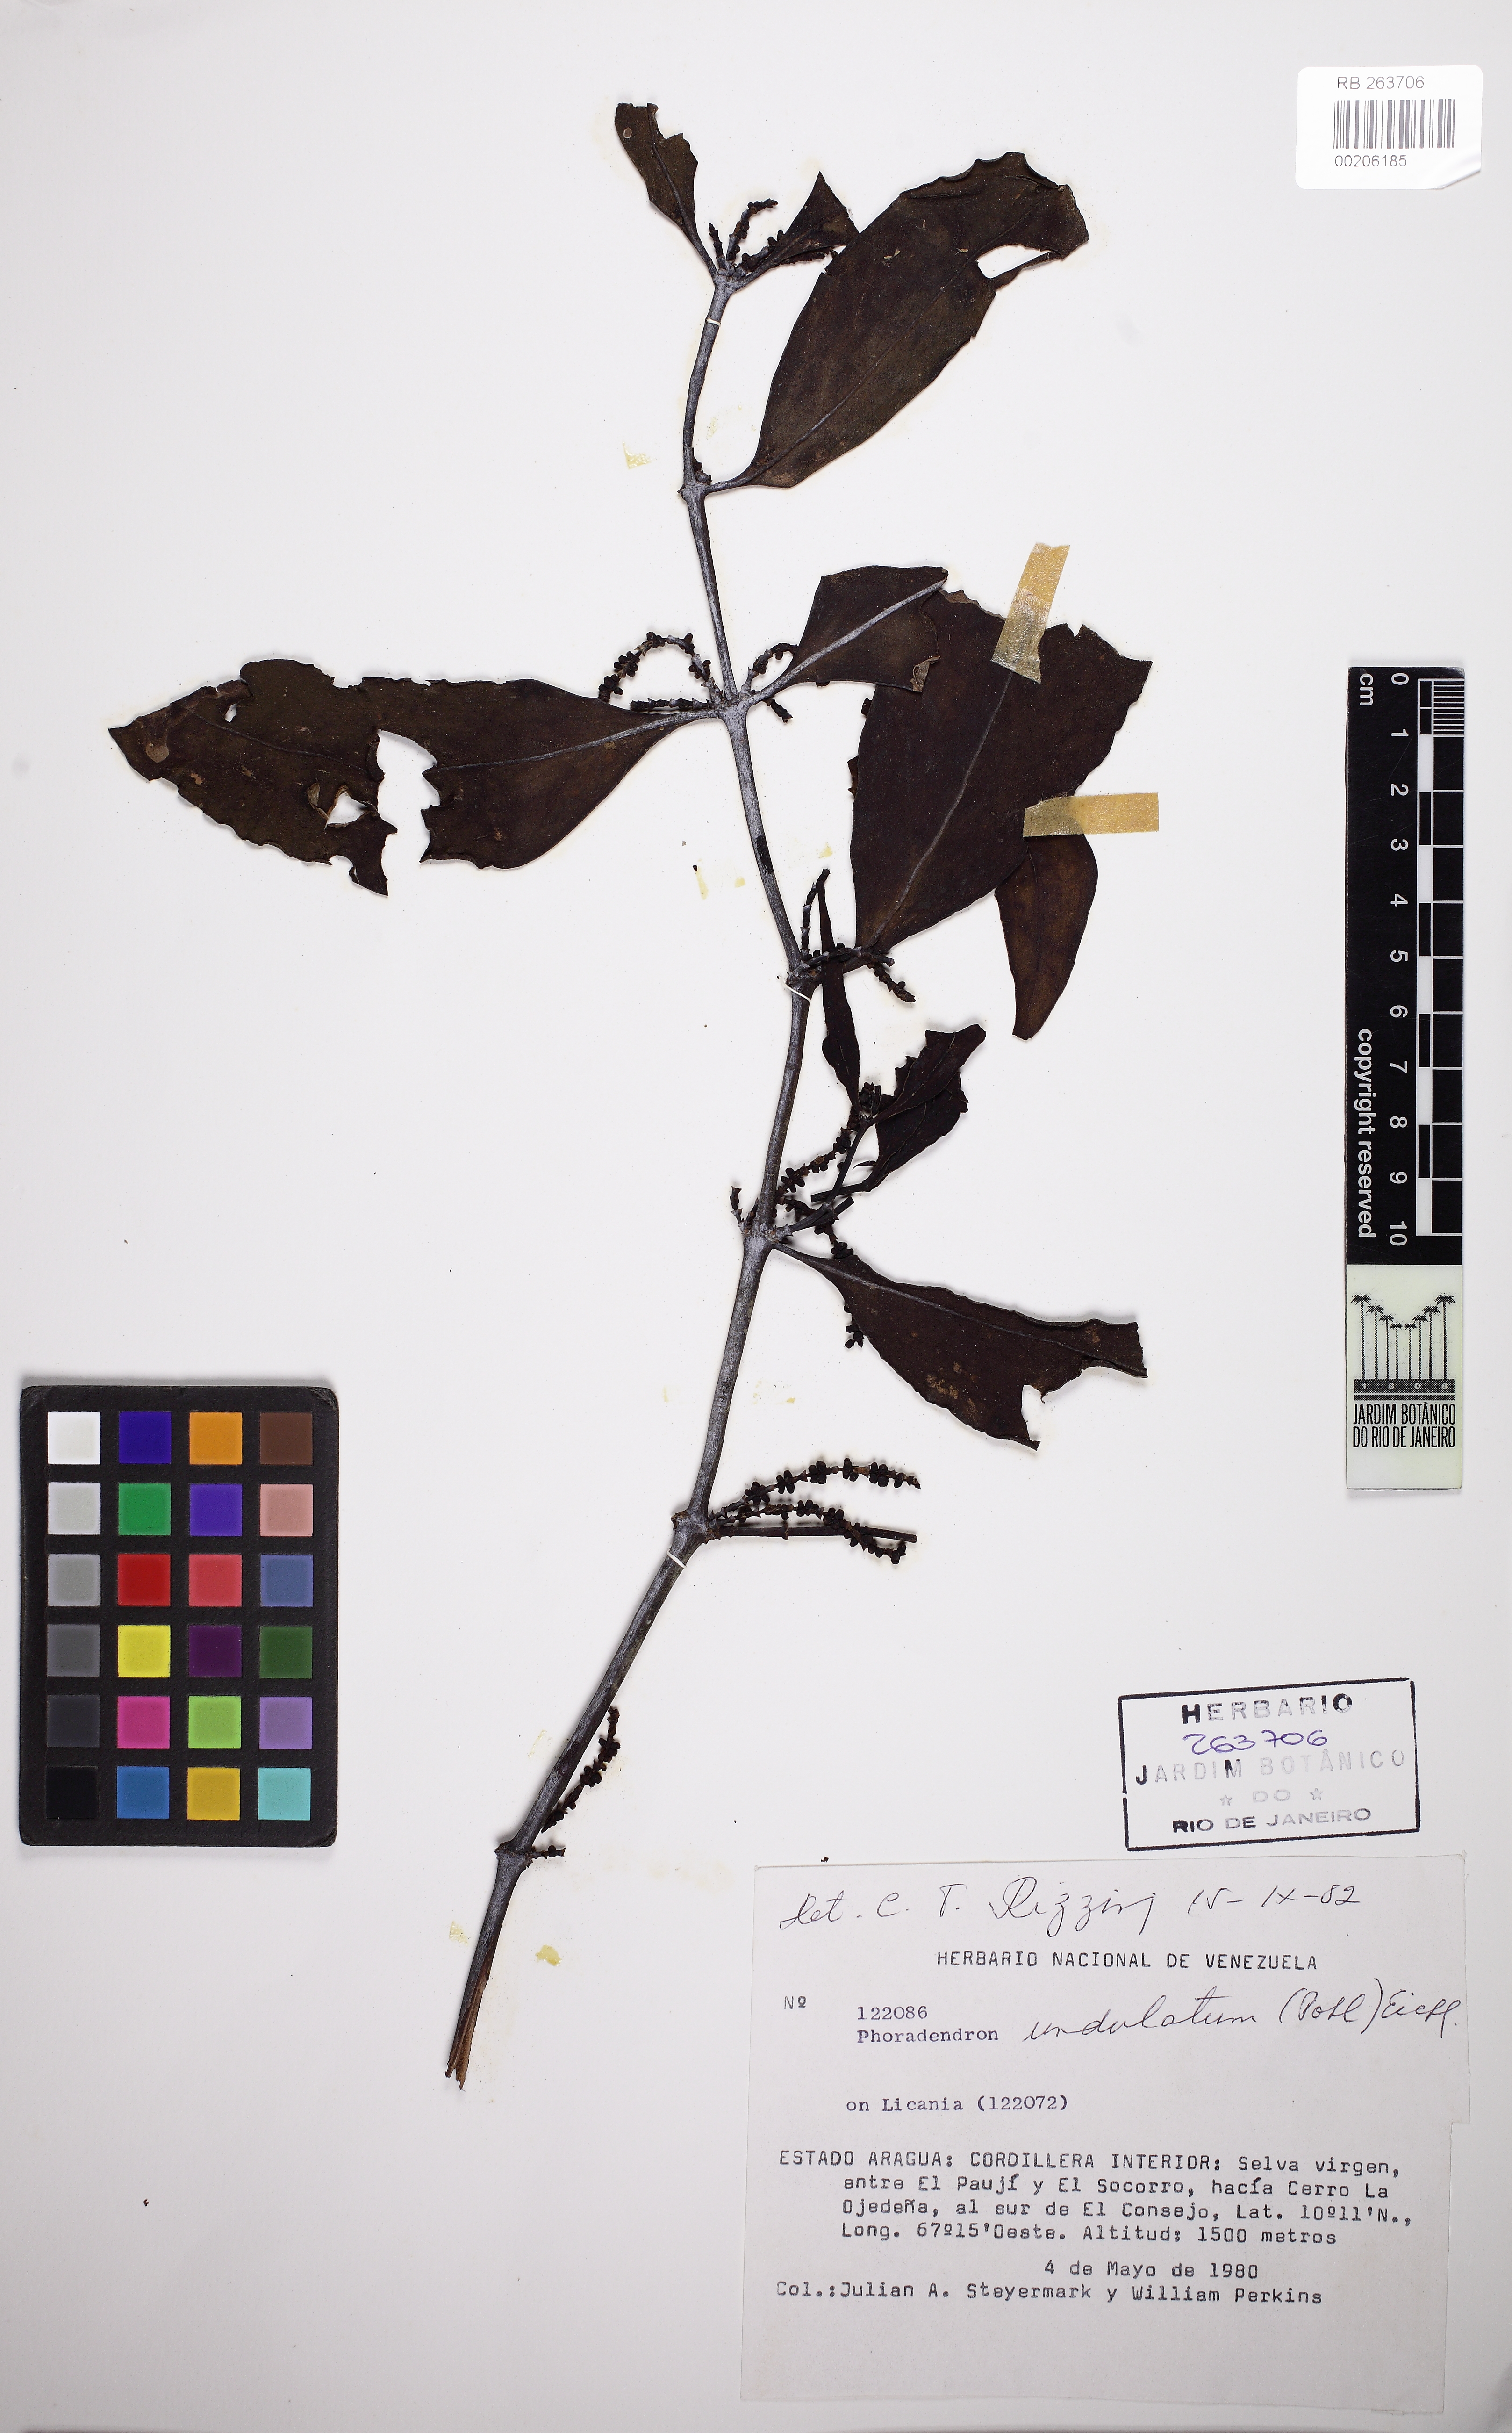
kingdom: Plantae
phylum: Tracheophyta
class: Magnoliopsida
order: Santalales
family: Viscaceae
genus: Phoradendron
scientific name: Phoradendron undulatum
